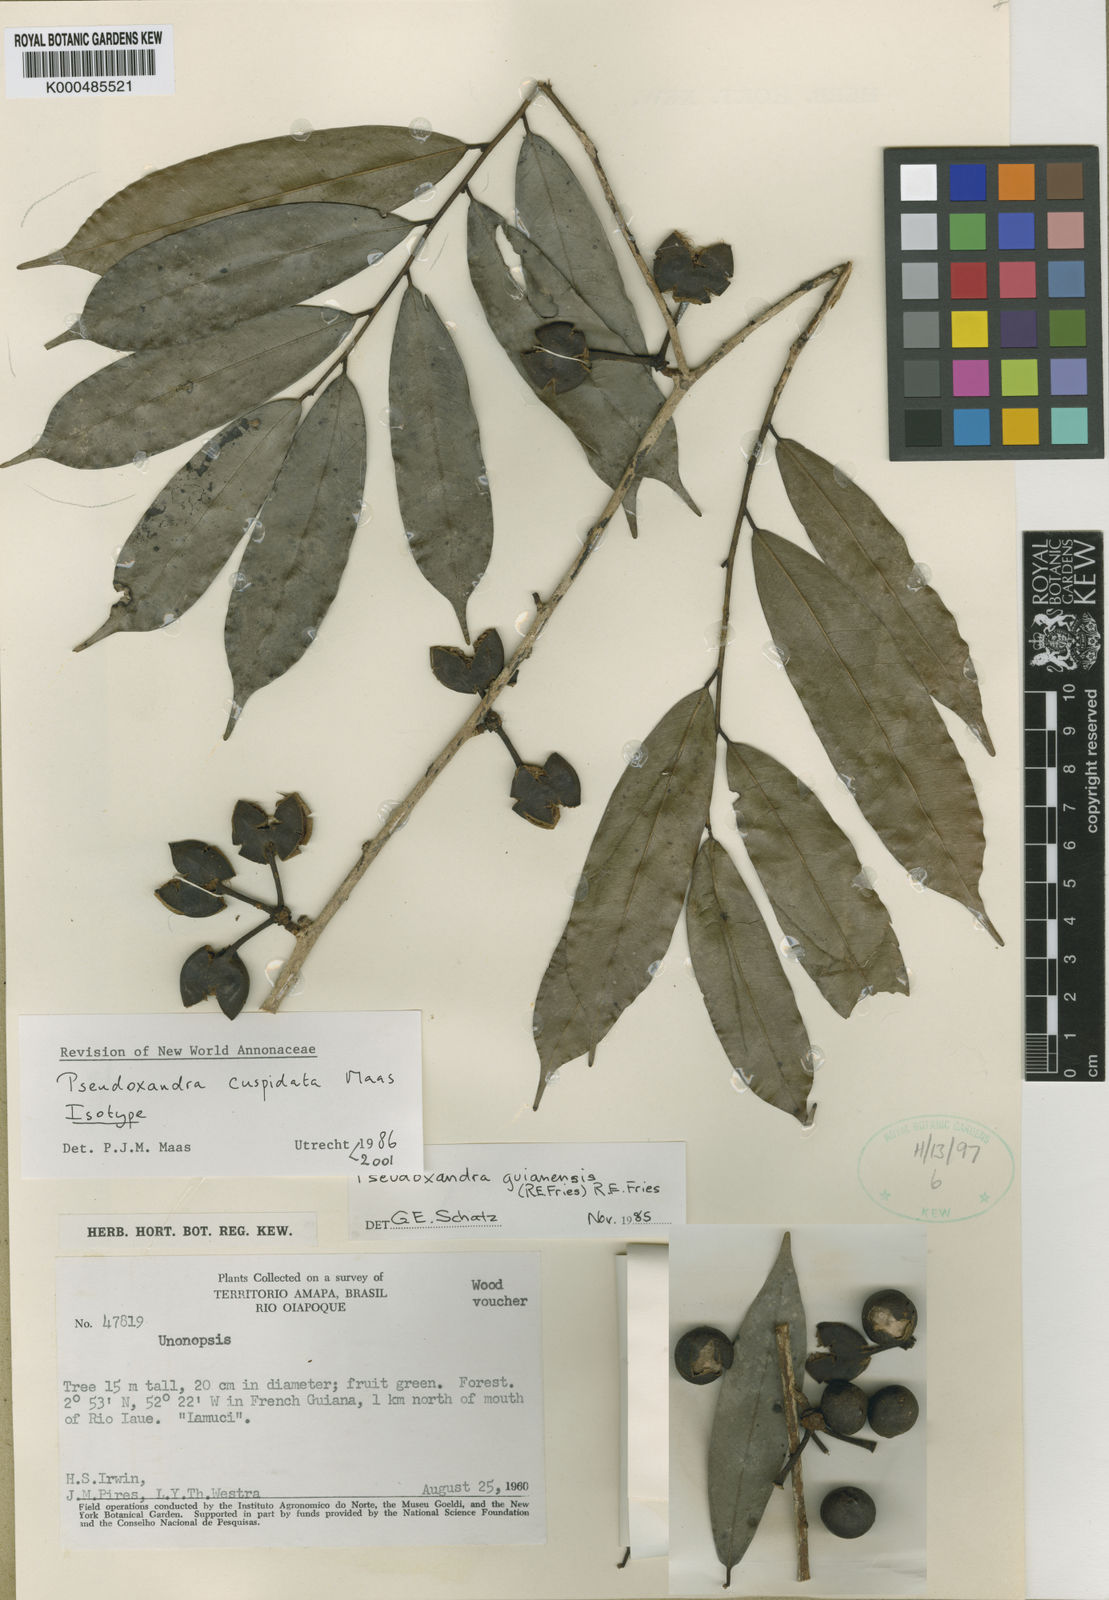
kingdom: Plantae
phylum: Tracheophyta
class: Magnoliopsida
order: Magnoliales
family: Annonaceae
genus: Pseudoxandra
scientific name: Pseudoxandra cuspidata
